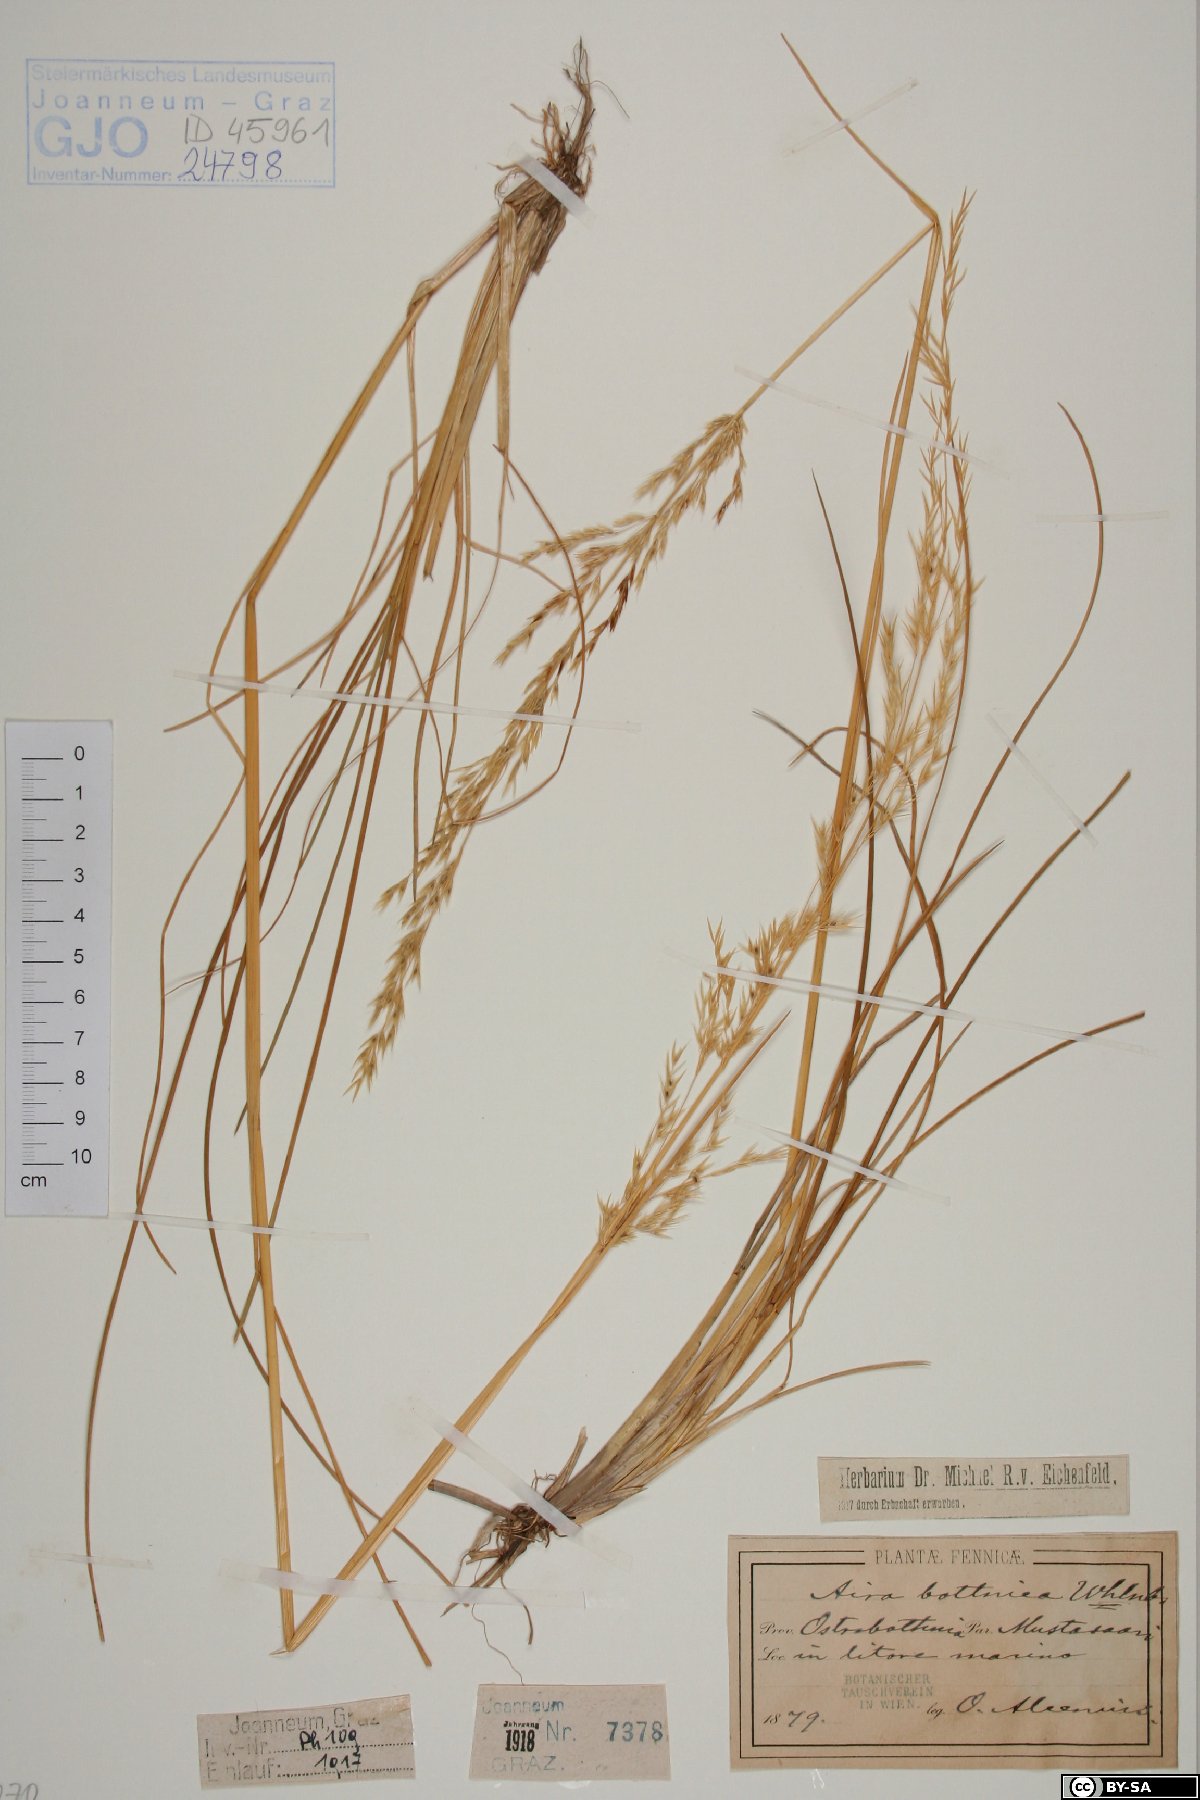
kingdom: Plantae
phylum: Tracheophyta
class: Liliopsida
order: Poales
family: Poaceae
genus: Deschampsia
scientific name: Deschampsia cespitosa
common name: Tufted hair-grass
